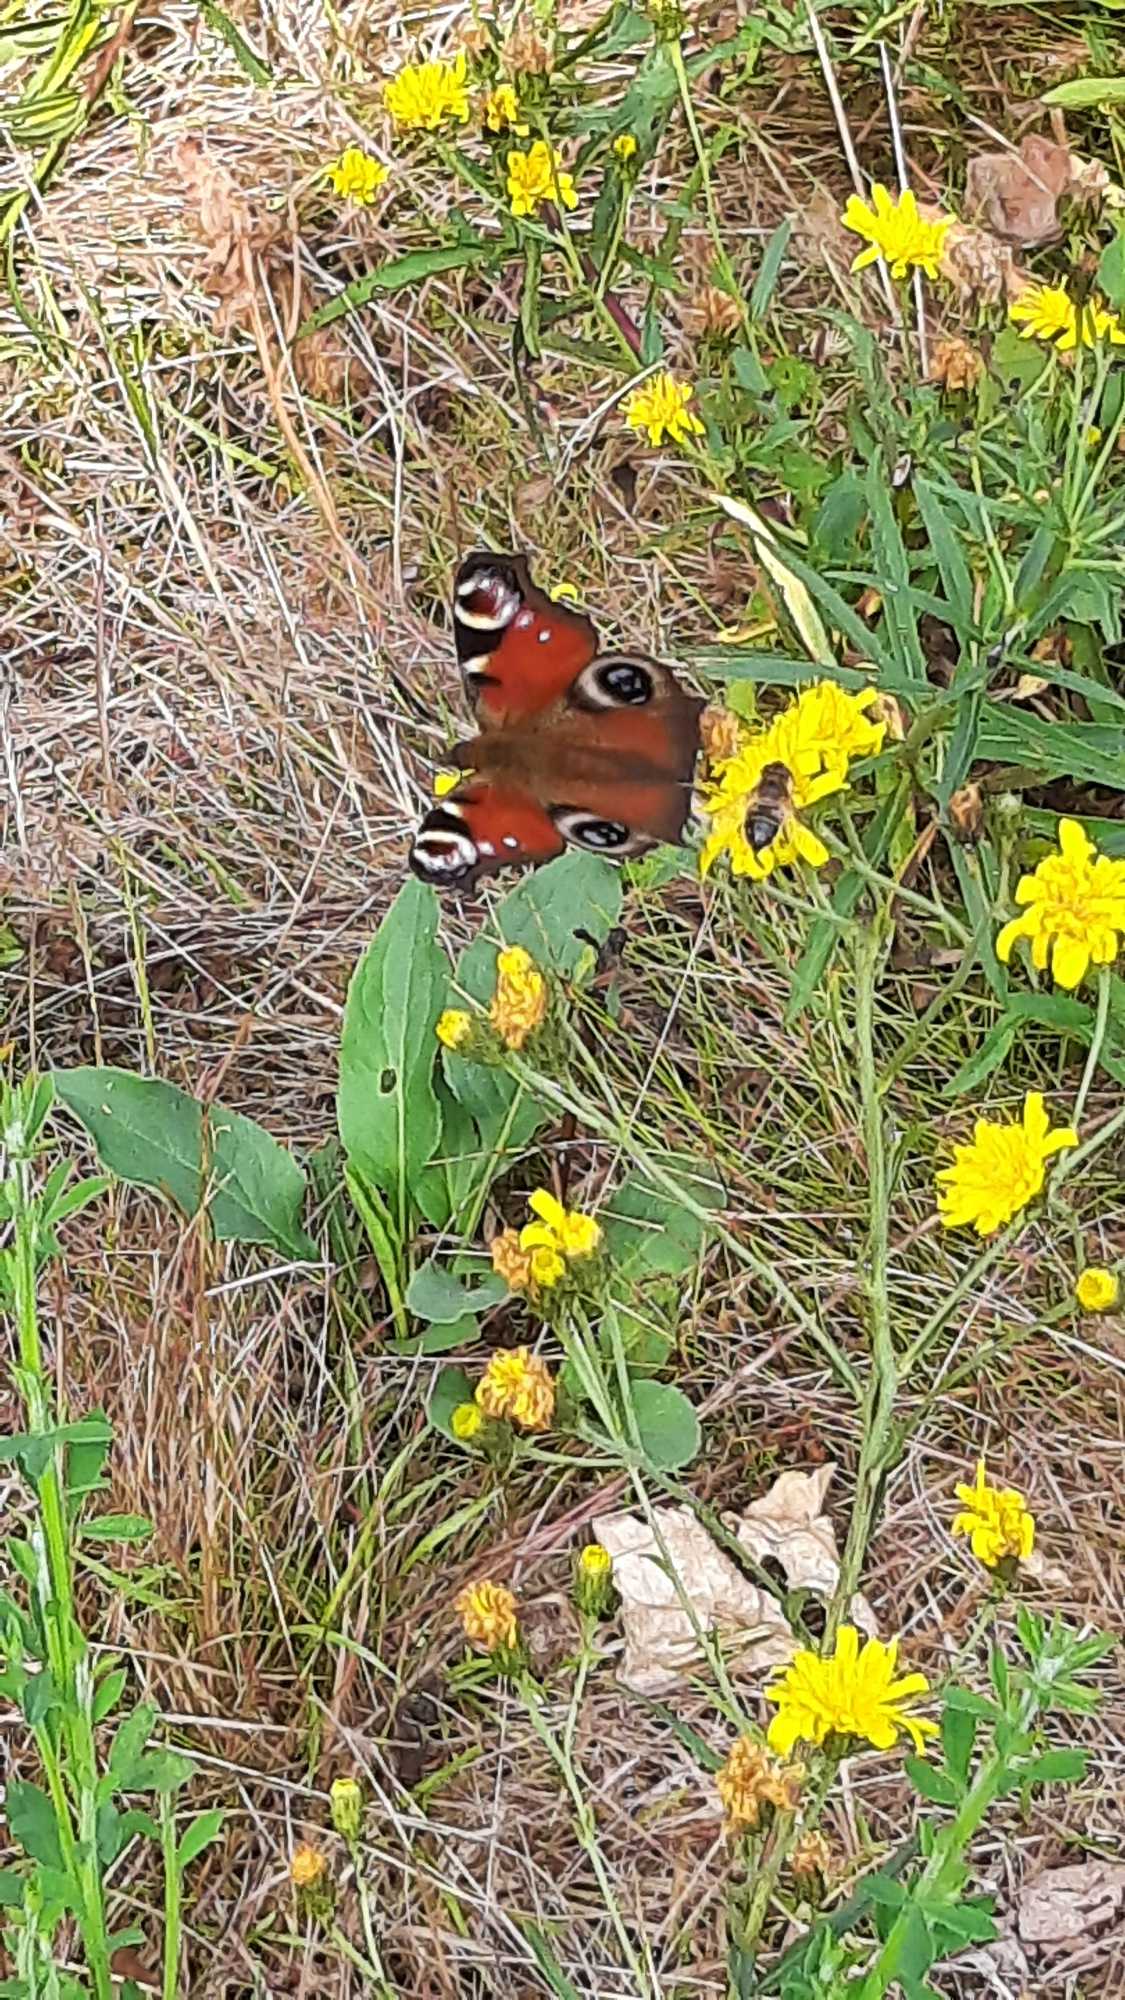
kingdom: Animalia
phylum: Arthropoda
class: Insecta
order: Lepidoptera
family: Nymphalidae
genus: Aglais
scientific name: Aglais io
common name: Dagpåfugleøje
